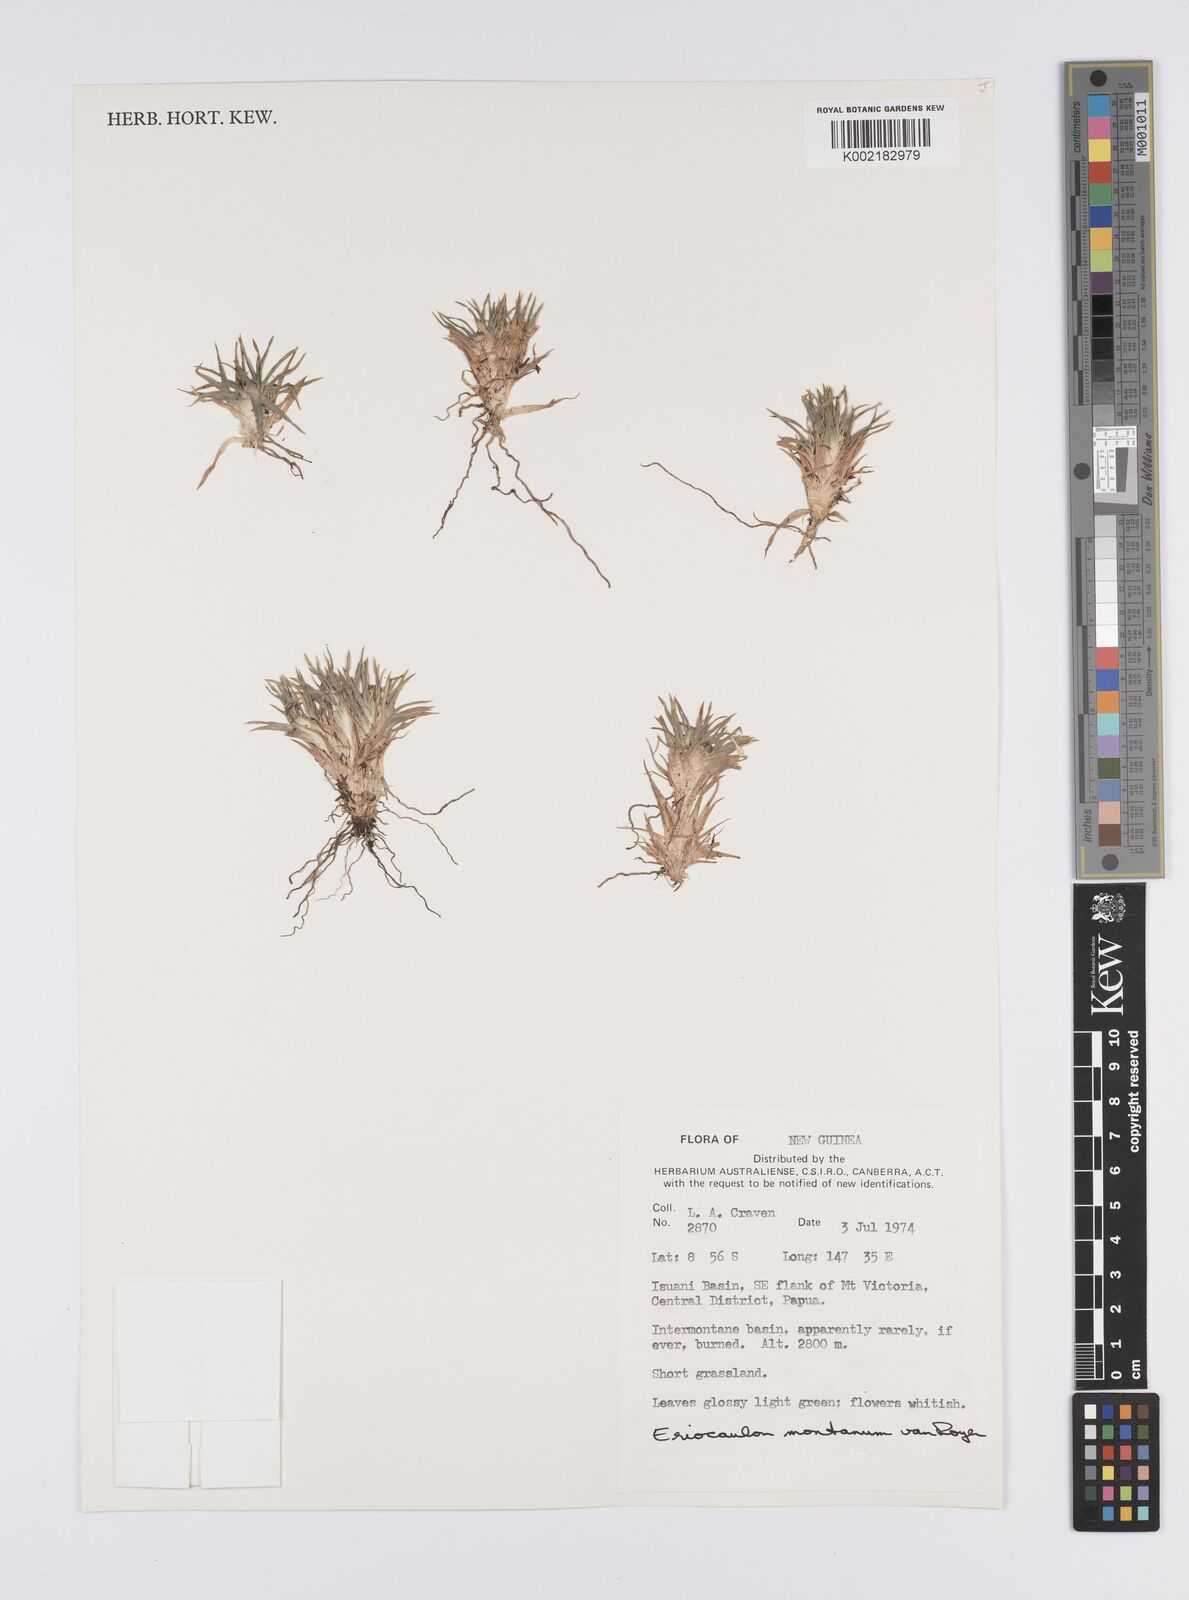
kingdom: Plantae
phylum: Tracheophyta
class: Liliopsida
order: Poales
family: Eriocaulaceae
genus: Eriocaulon
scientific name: Eriocaulon montanum
